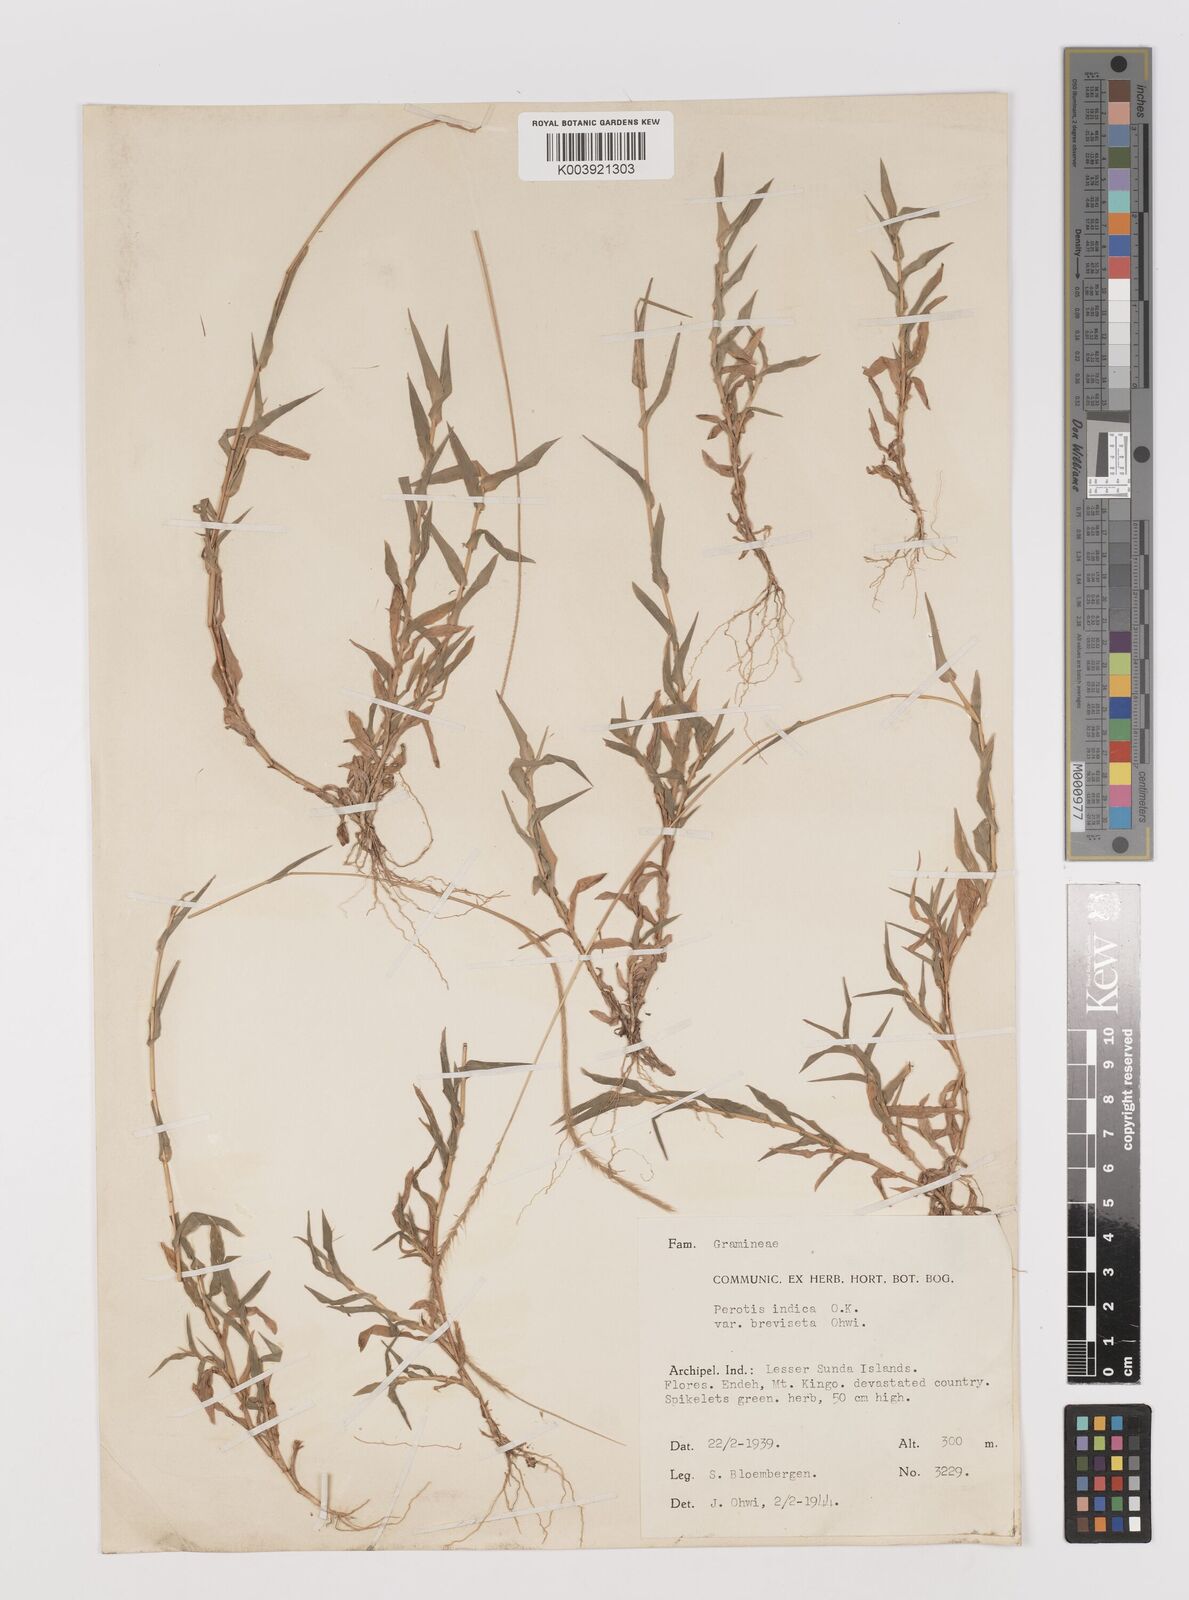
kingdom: Plantae
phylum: Tracheophyta
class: Liliopsida
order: Poales
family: Poaceae
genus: Perotis
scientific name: Perotis hordeiformis
